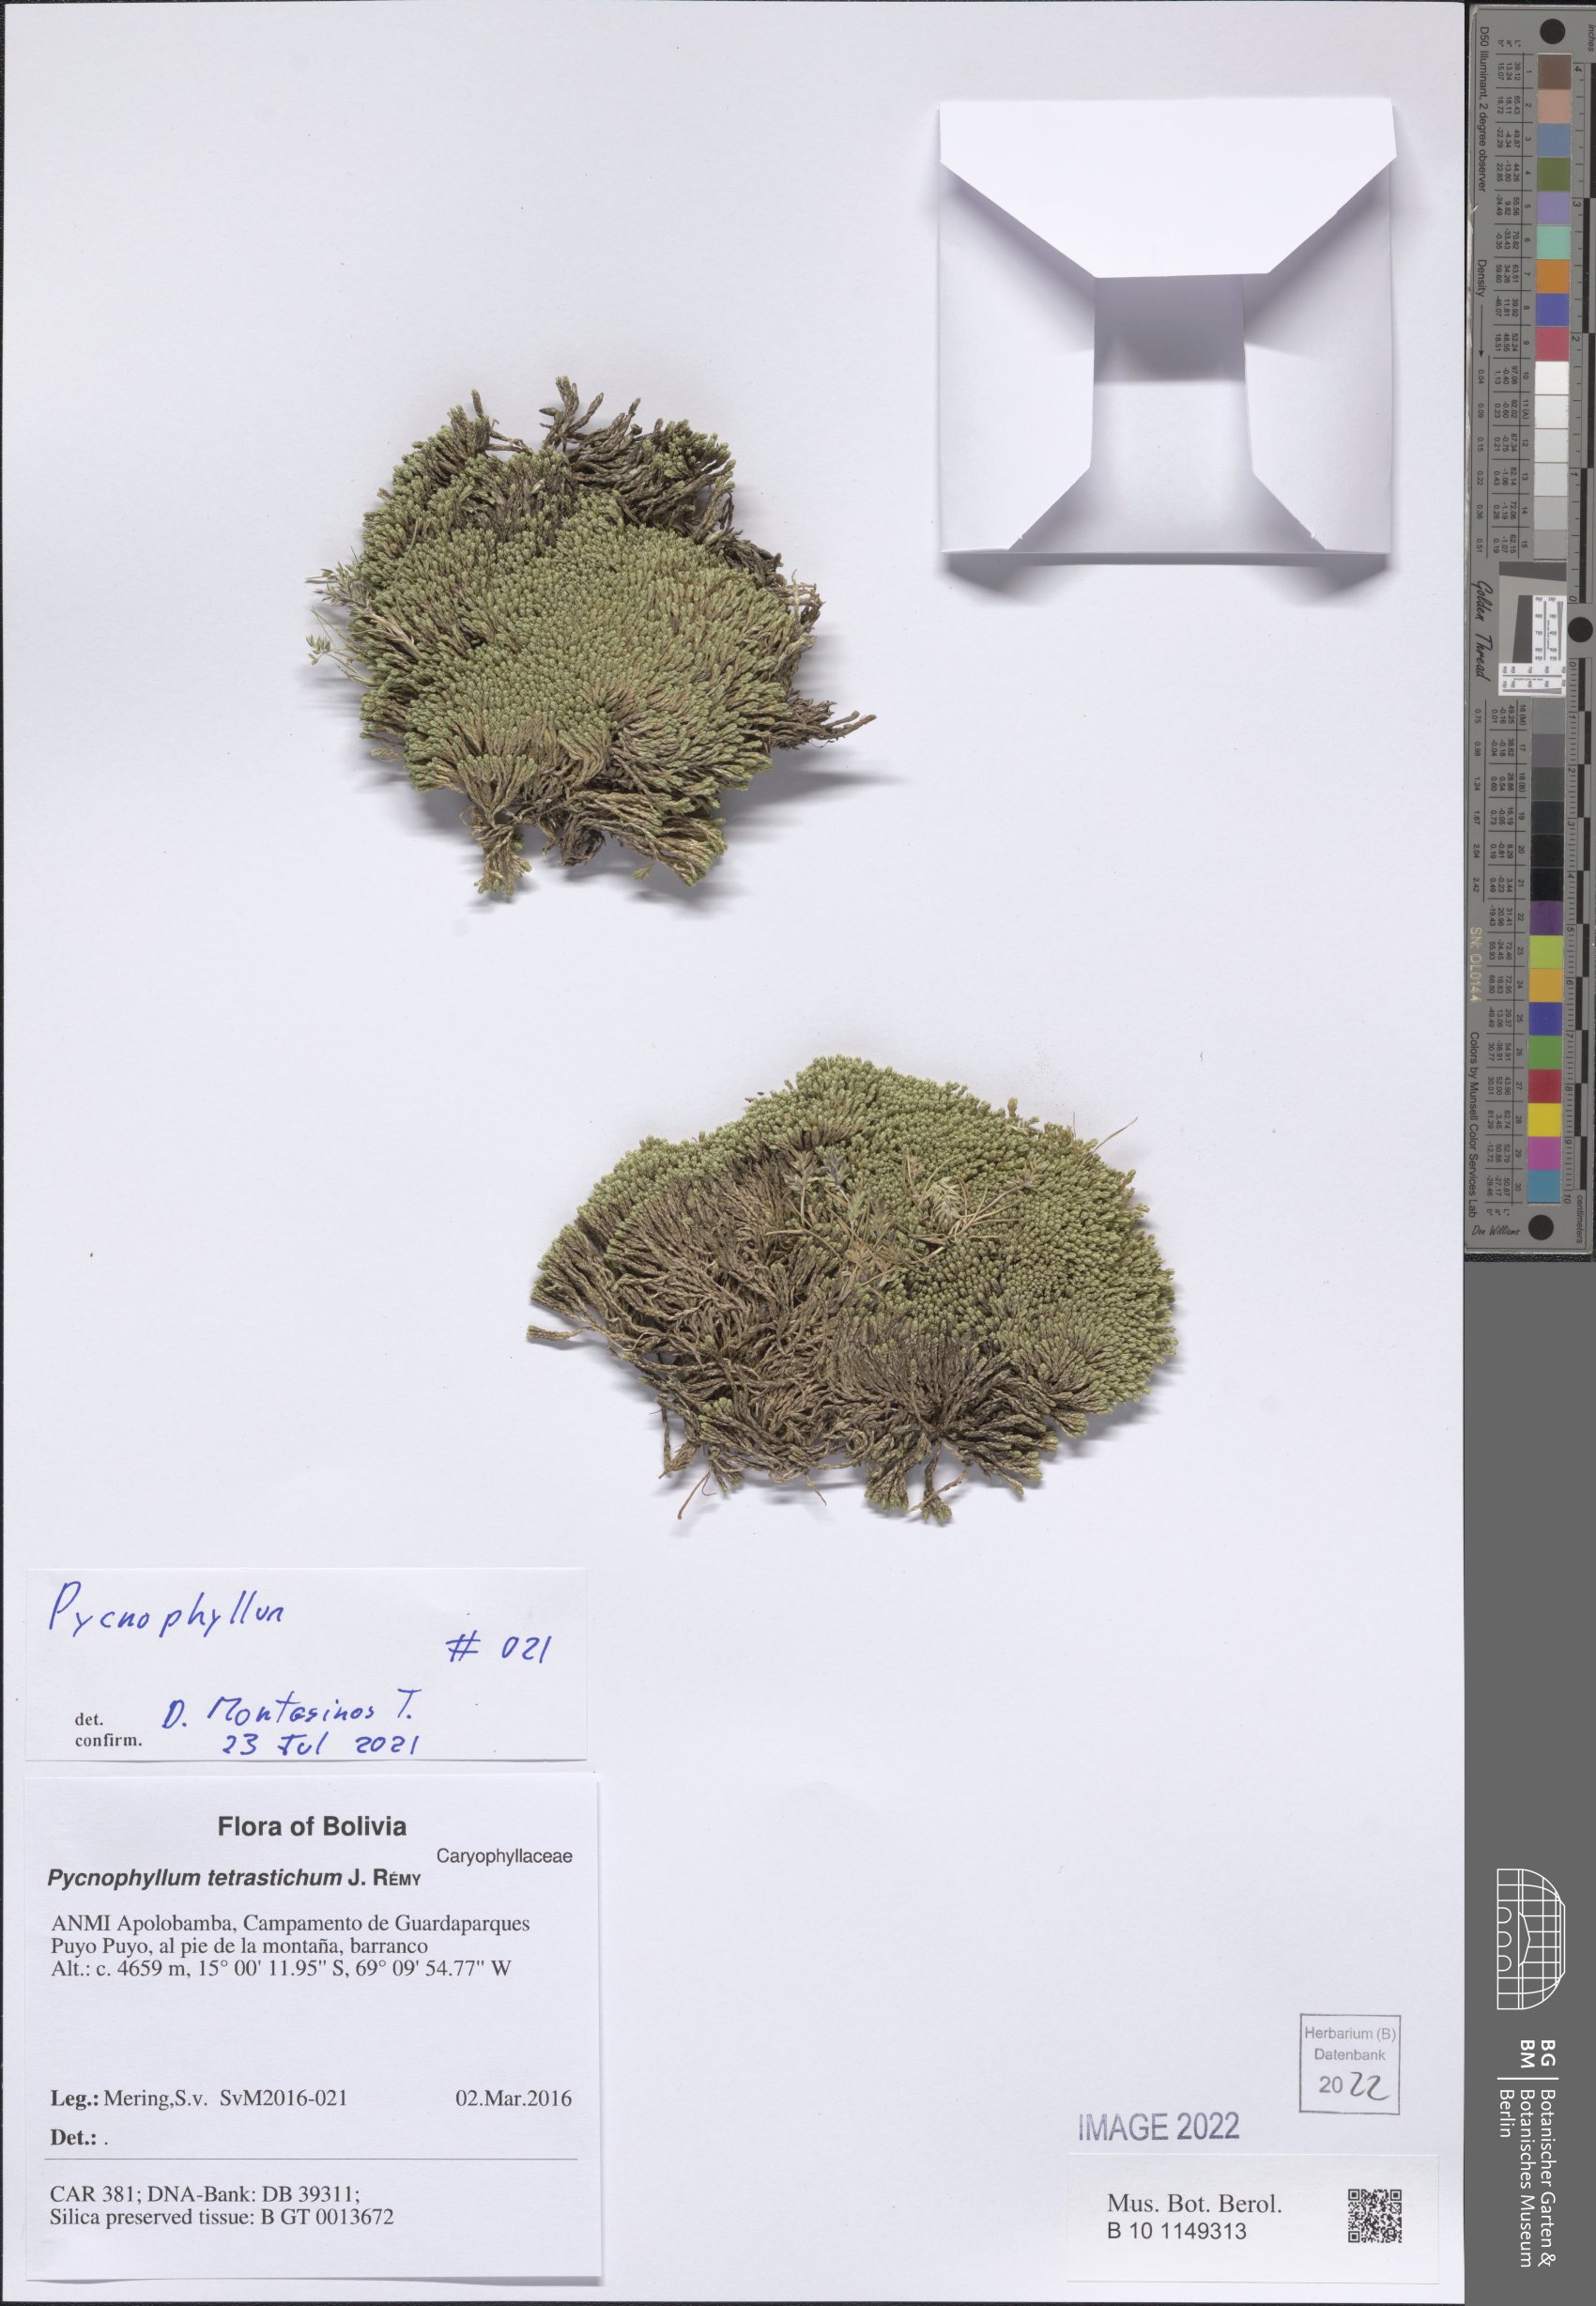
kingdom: Plantae
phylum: Tracheophyta
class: Magnoliopsida
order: Caryophyllales
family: Caryophyllaceae
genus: Pycnophyllum
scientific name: Pycnophyllum
